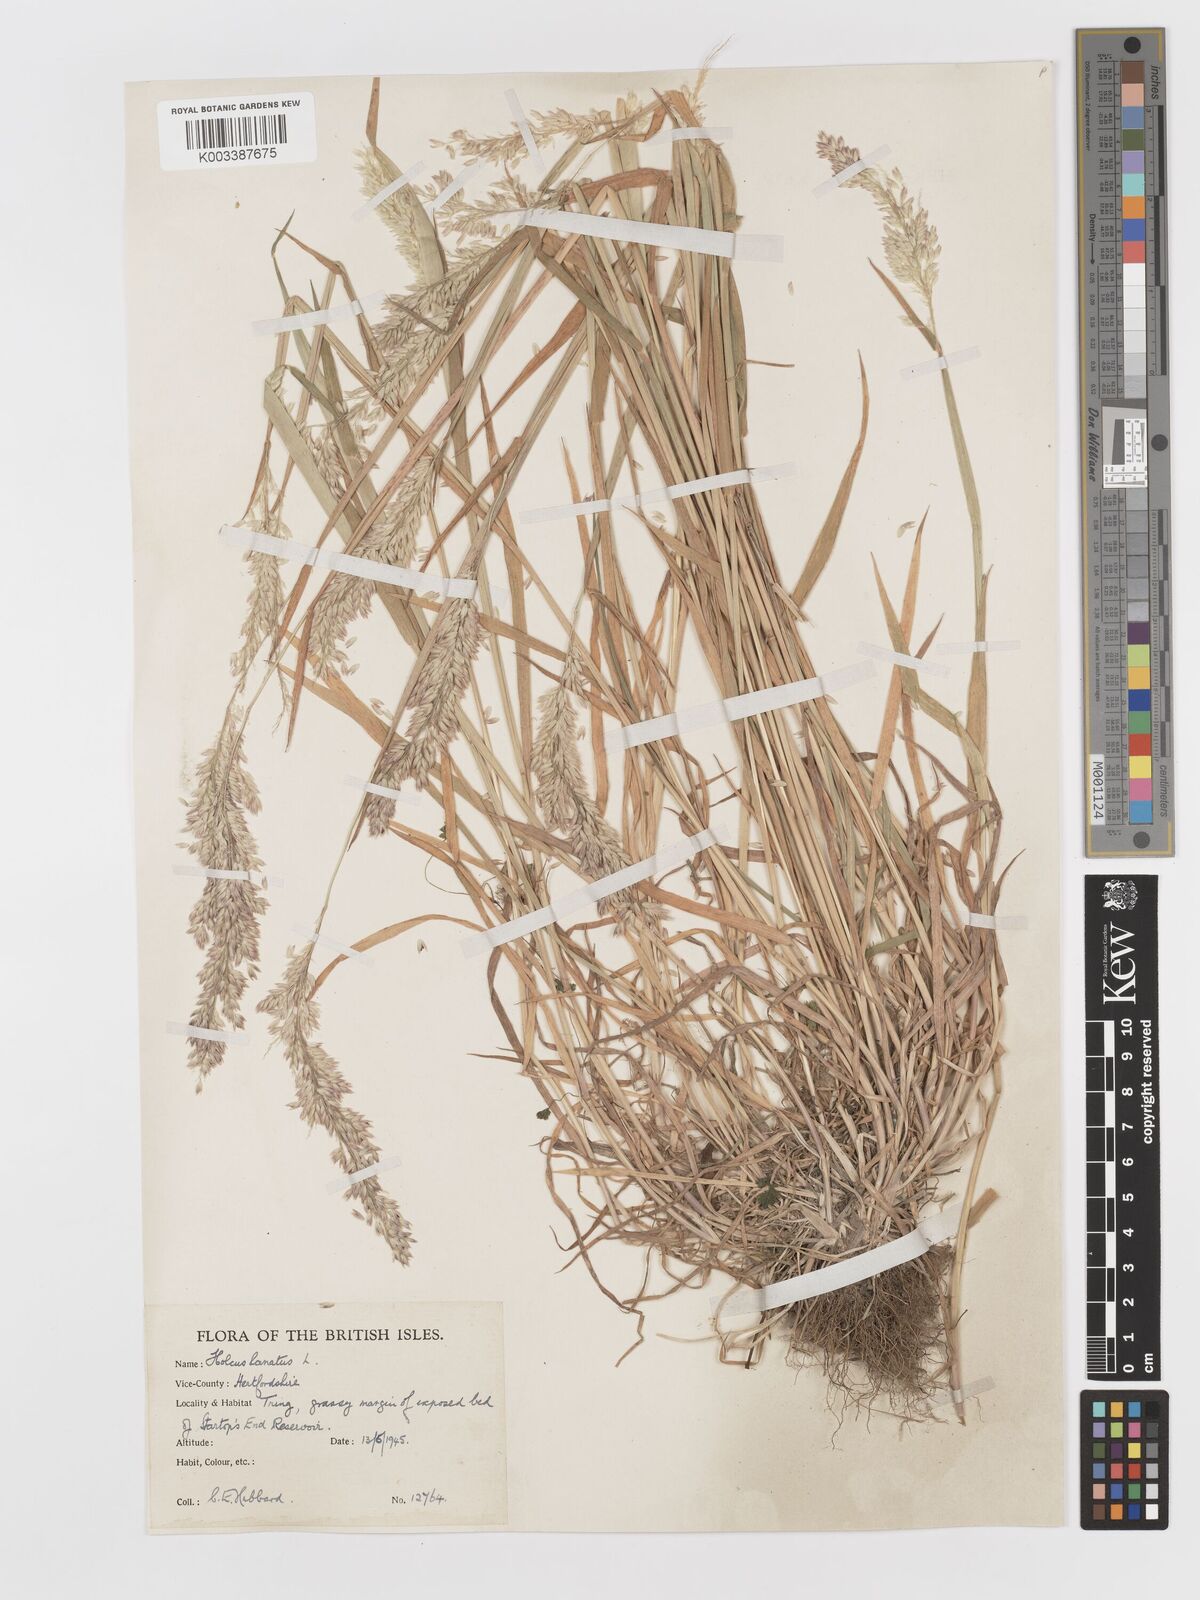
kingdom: Plantae
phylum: Tracheophyta
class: Liliopsida
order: Poales
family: Poaceae
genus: Holcus
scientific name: Holcus lanatus
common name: Yorkshire-fog
